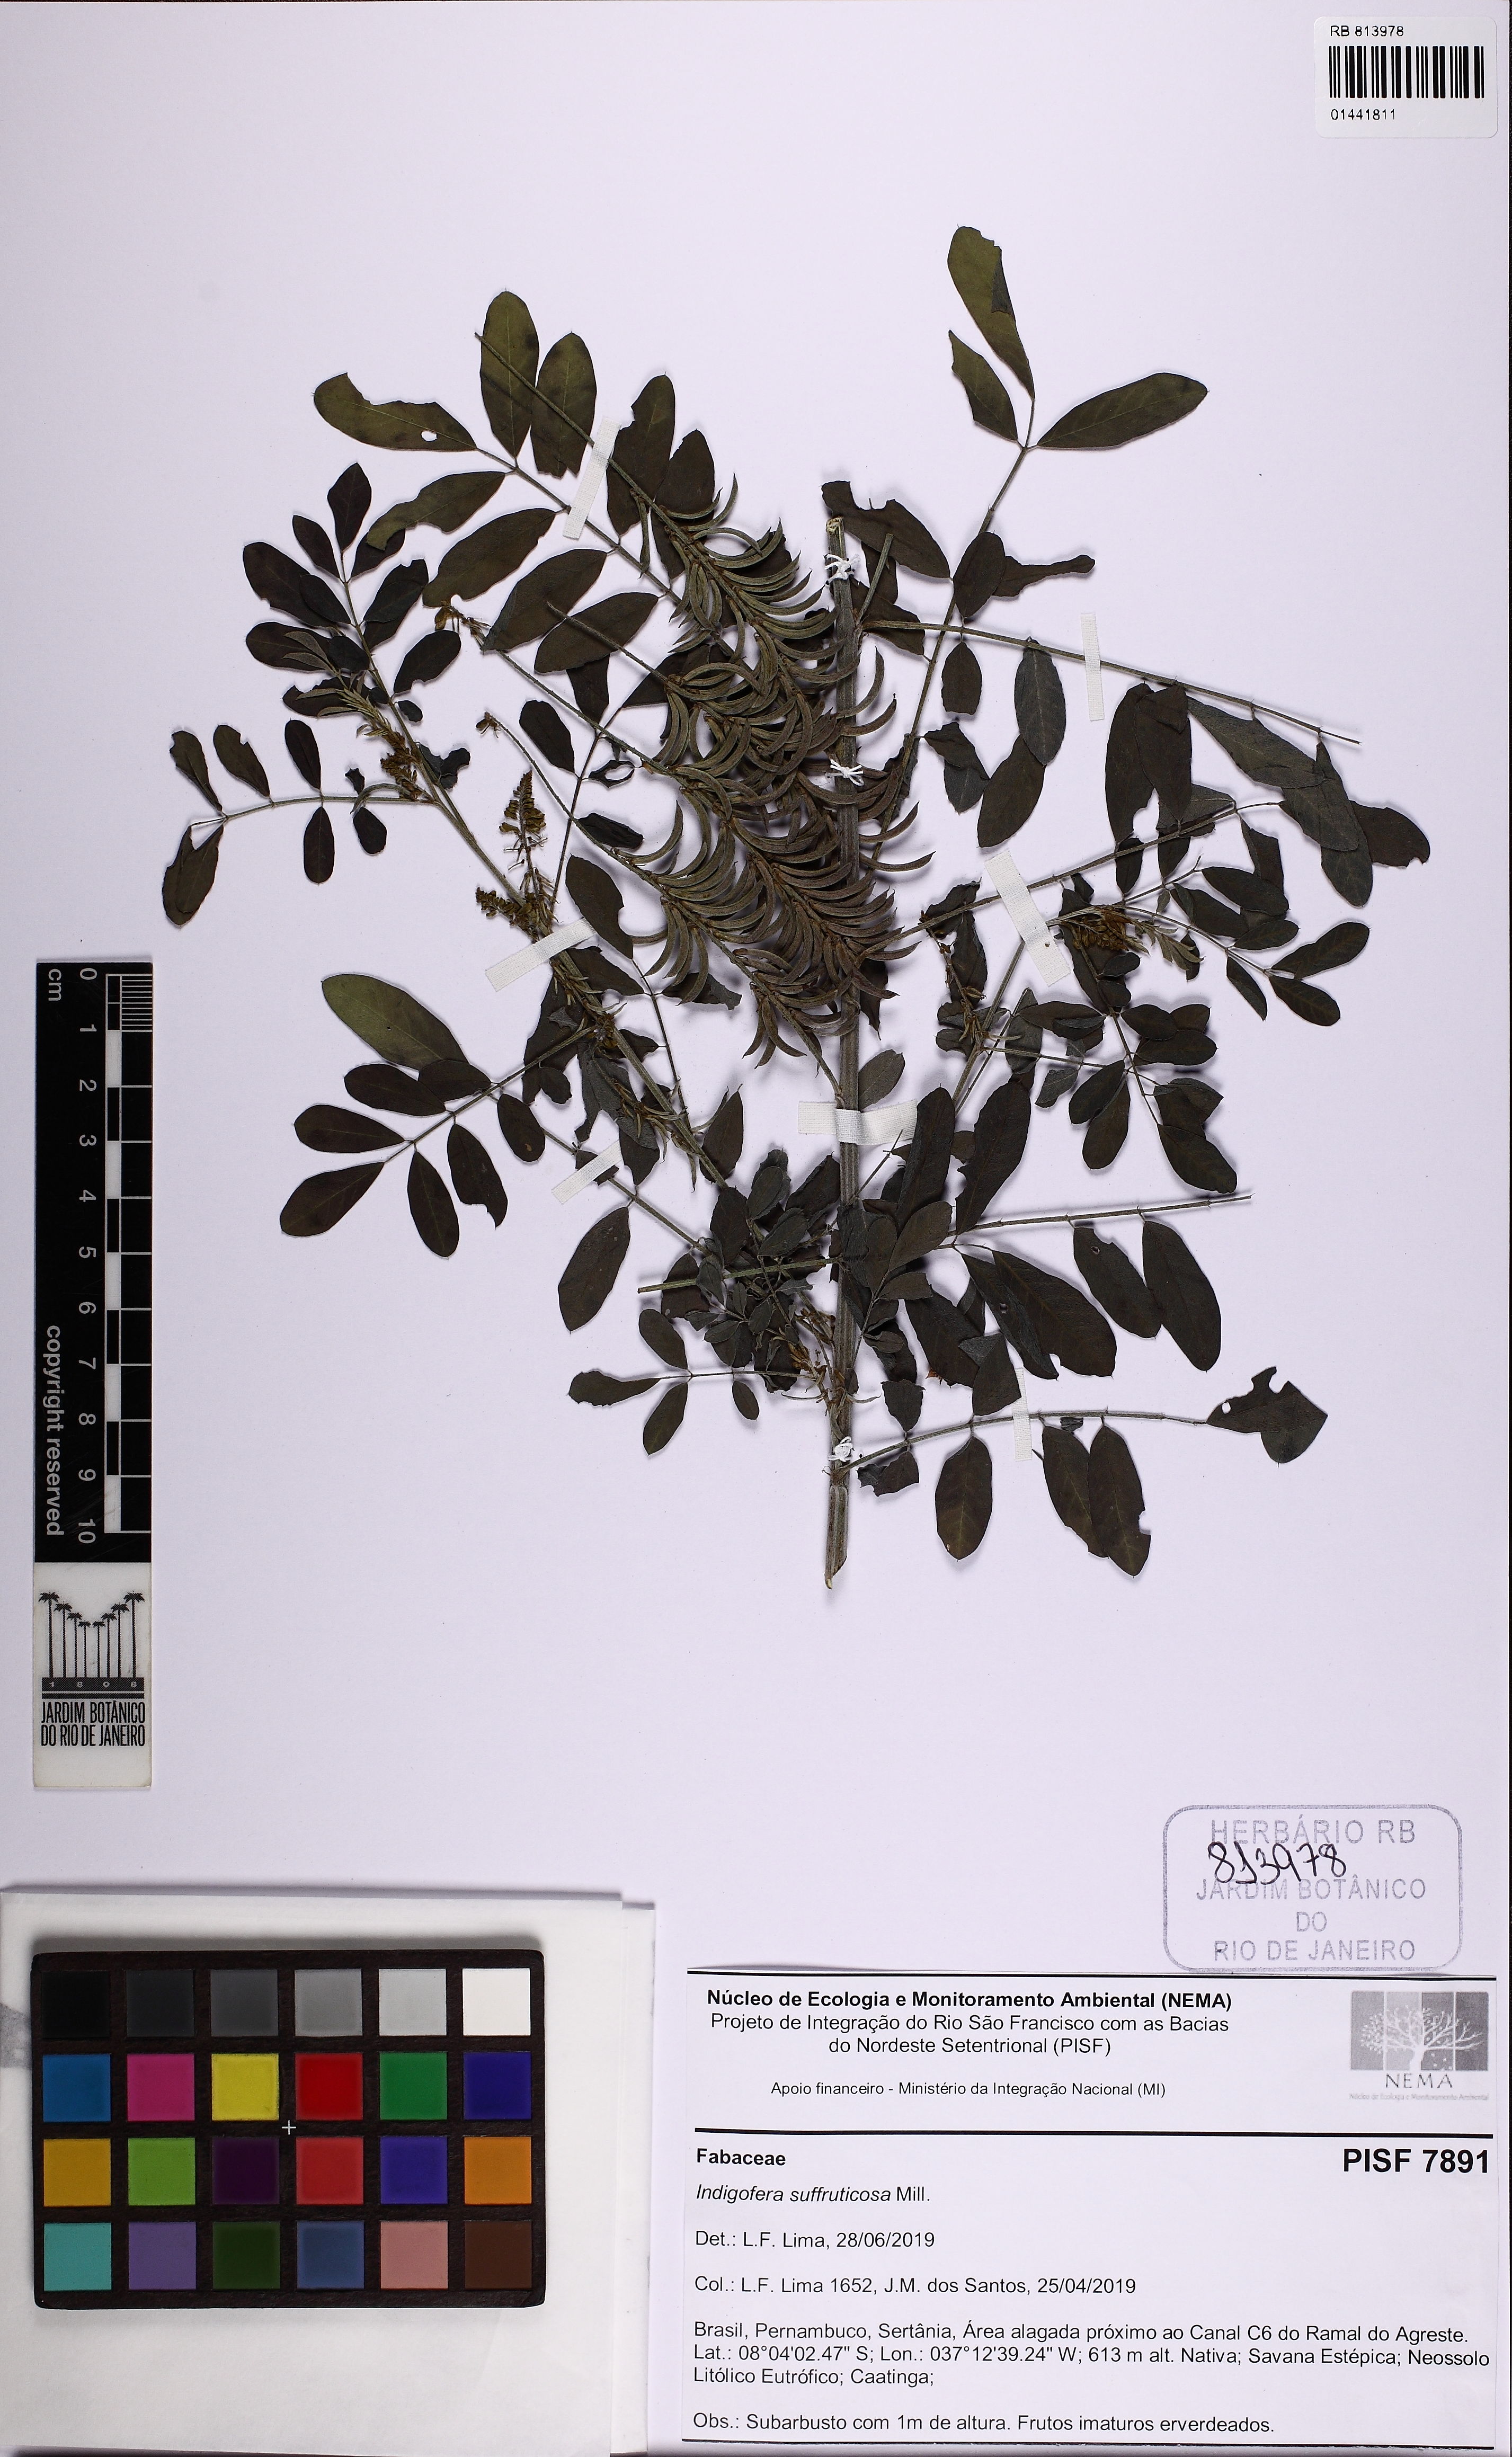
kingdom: Plantae
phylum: Tracheophyta
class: Magnoliopsida
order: Fabales
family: Fabaceae
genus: Indigofera
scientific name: Indigofera suffruticosa
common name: Anil de pasto
